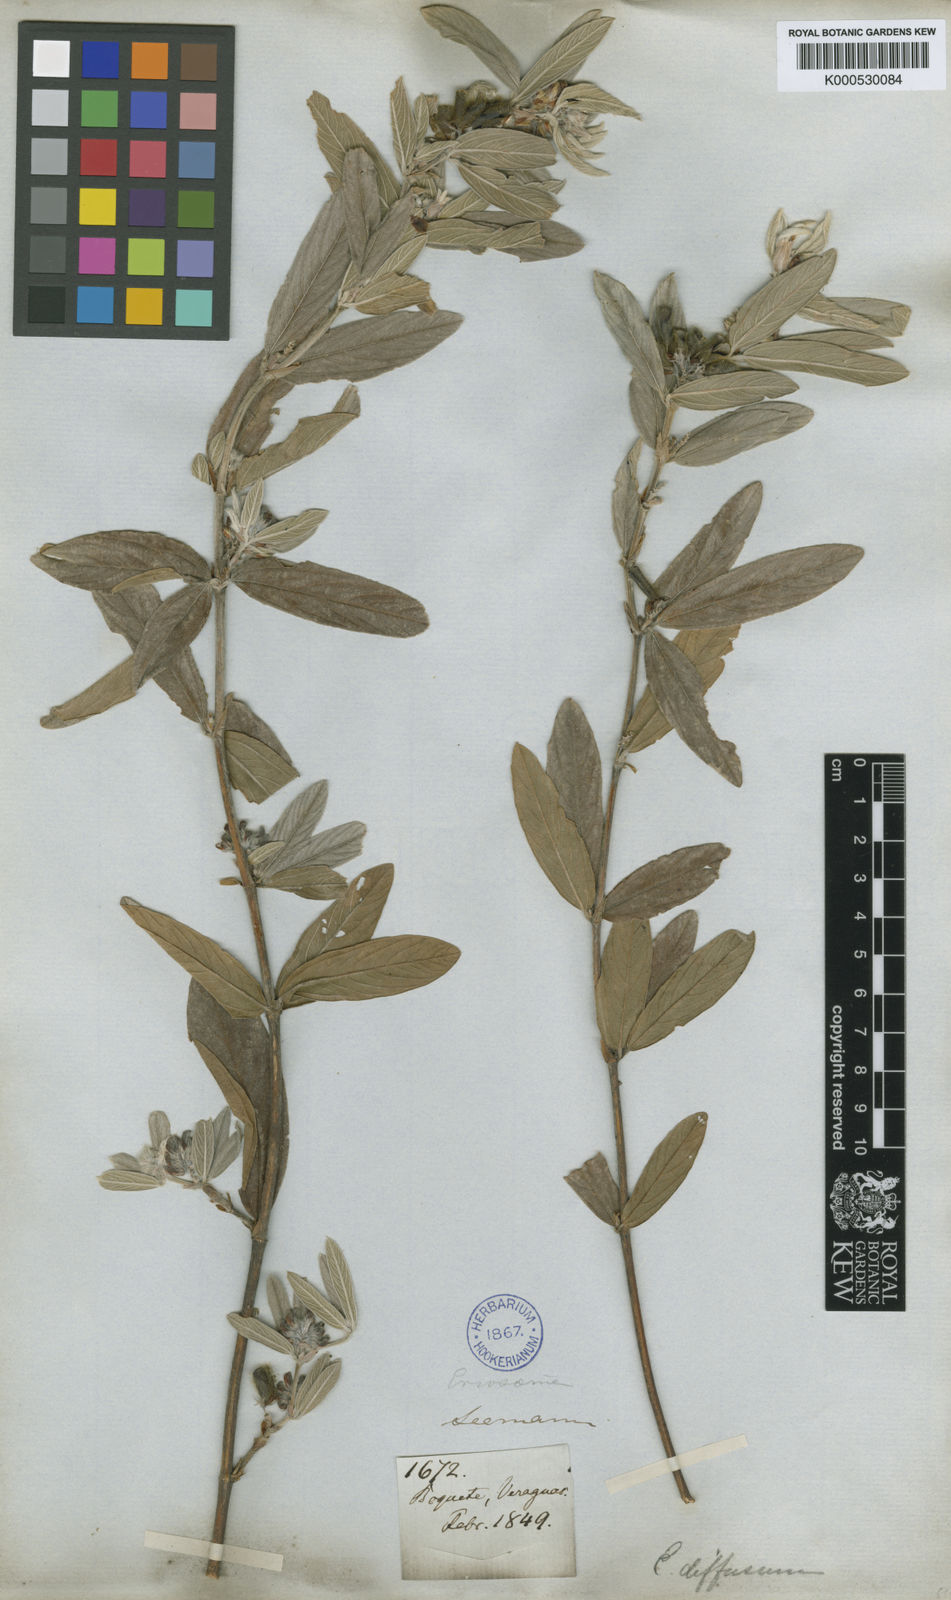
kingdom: Plantae
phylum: Tracheophyta
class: Magnoliopsida
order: Fabales
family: Fabaceae
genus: Eriosema
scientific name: Eriosema diffusum
